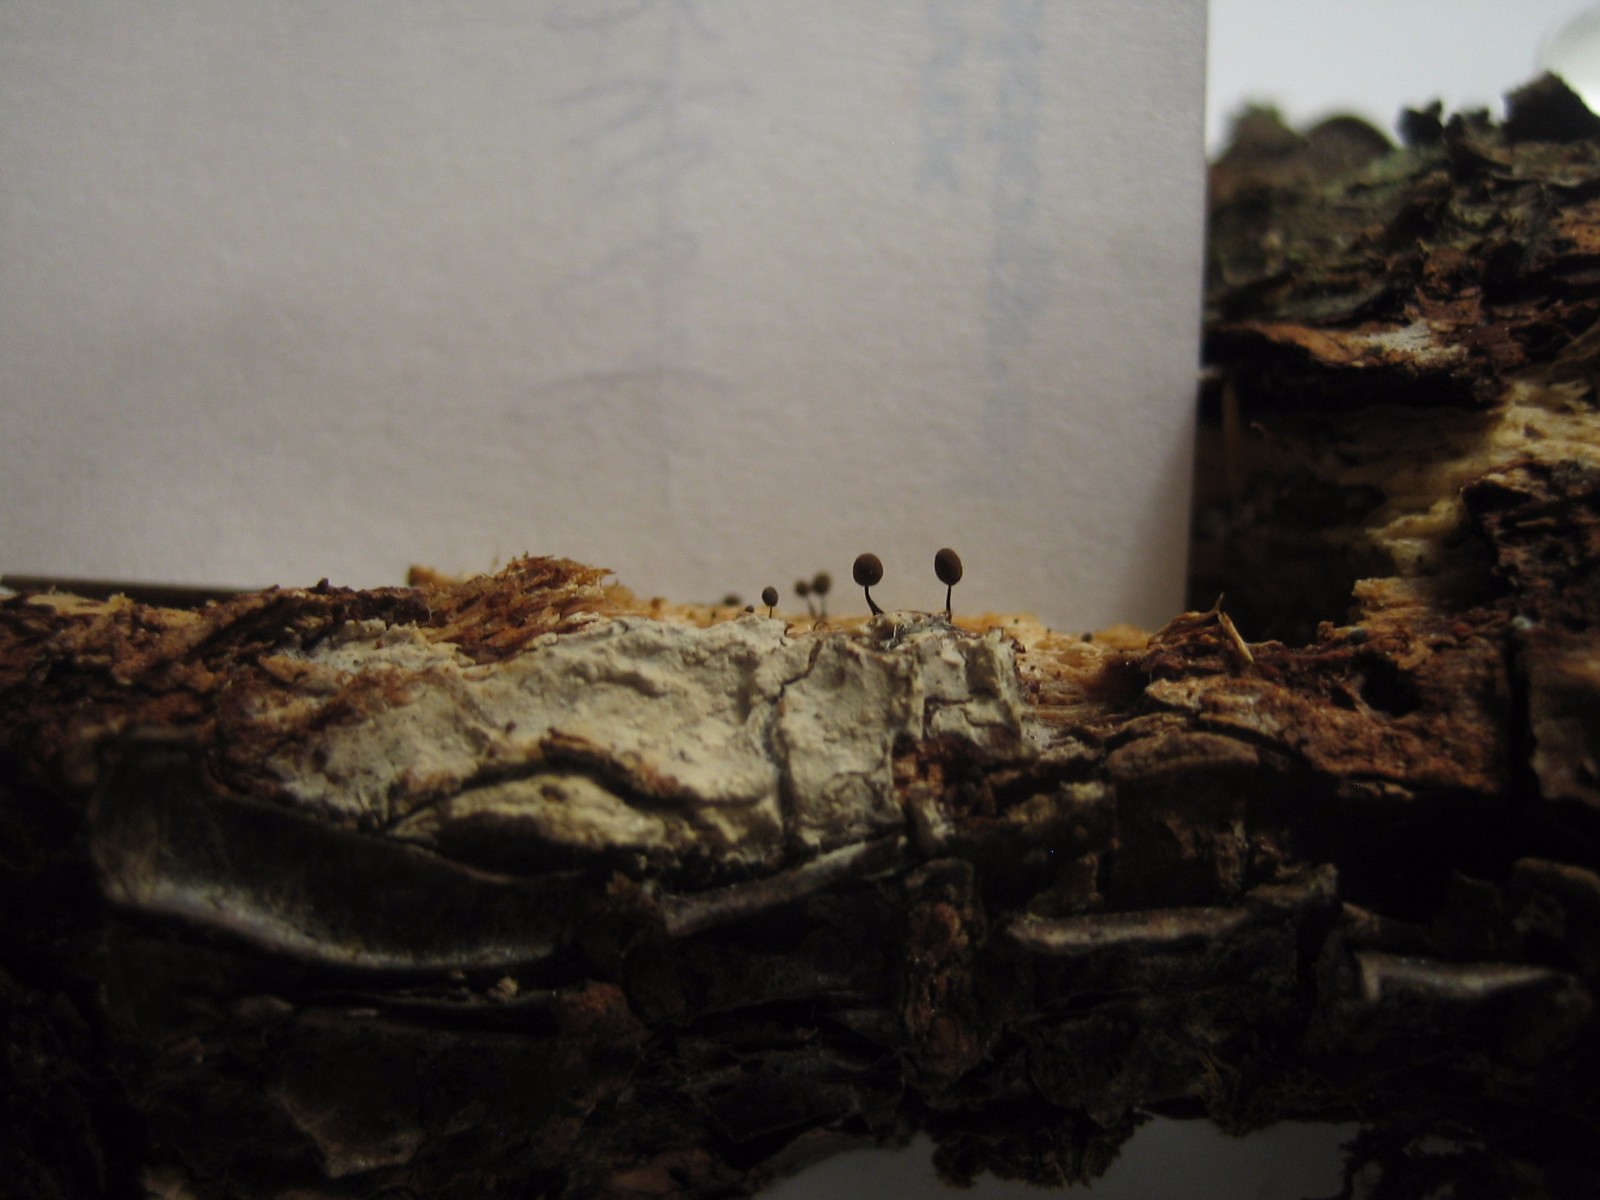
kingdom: Protozoa
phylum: Mycetozoa
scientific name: Mycetozoa
